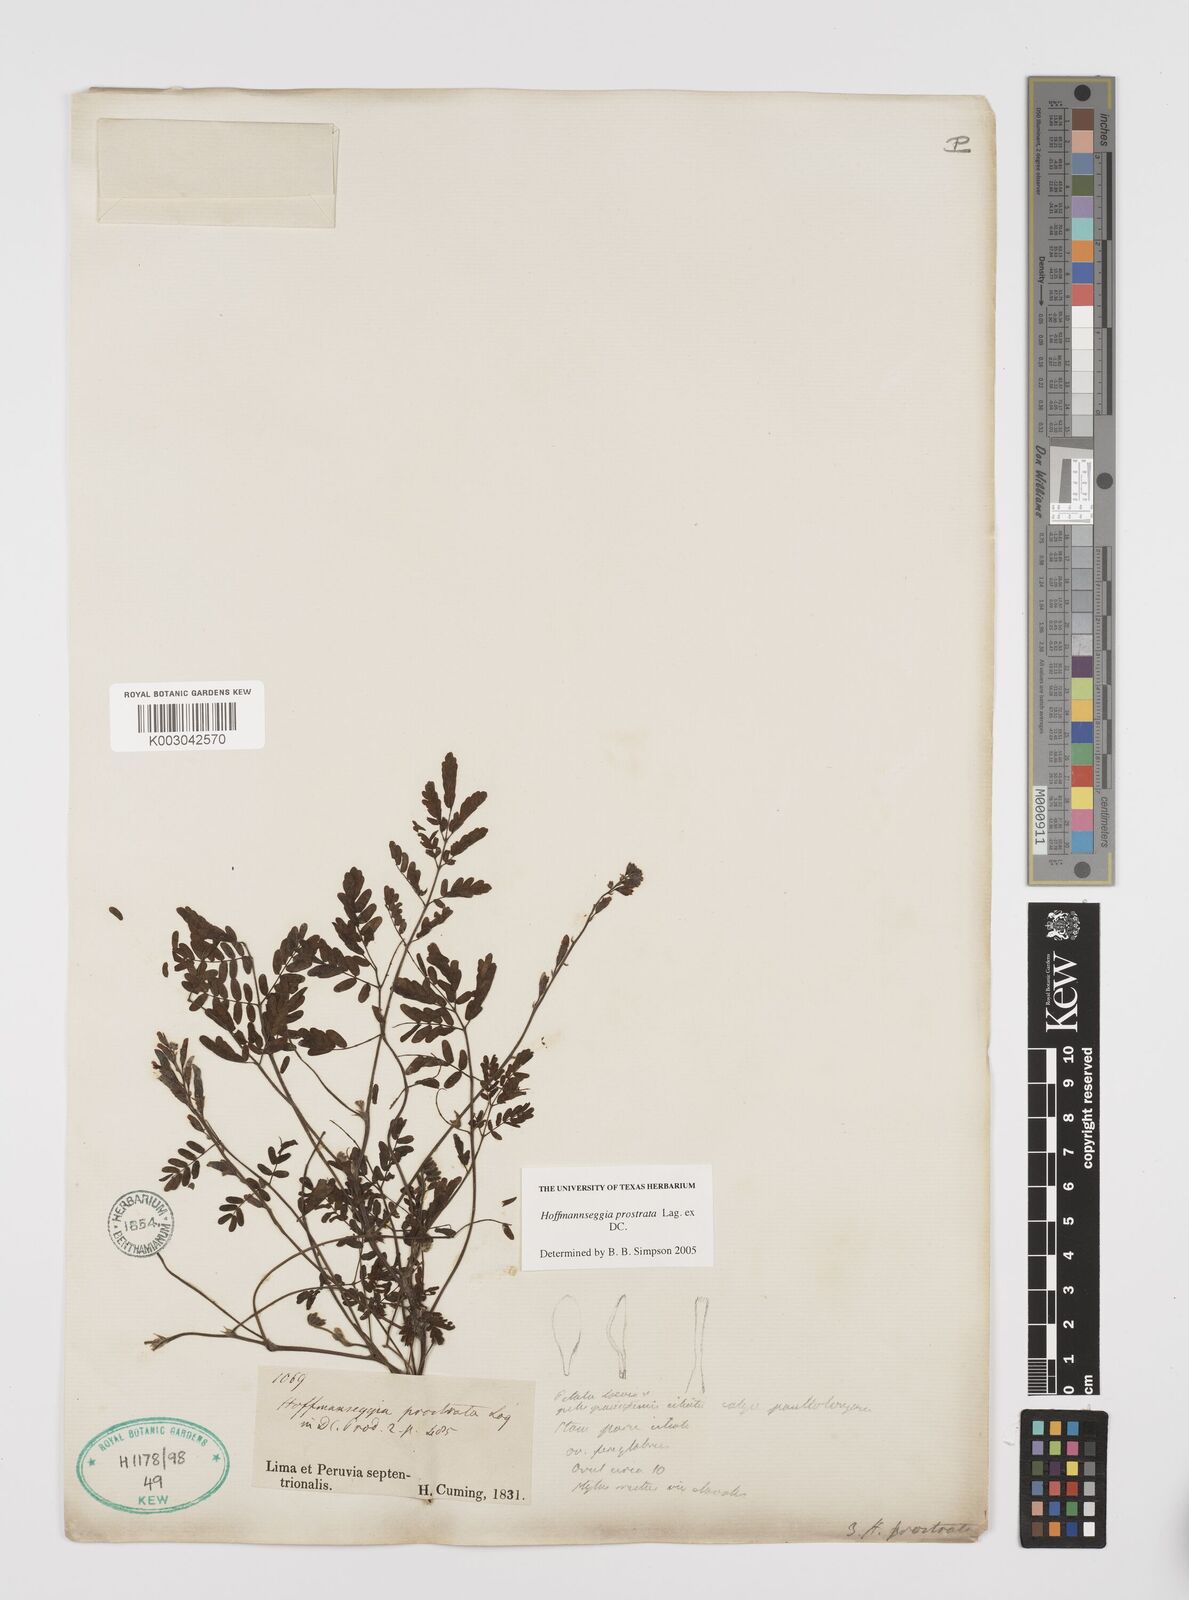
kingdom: Plantae
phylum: Tracheophyta
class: Magnoliopsida
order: Fabales
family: Fabaceae
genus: Hoffmannseggia
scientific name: Hoffmannseggia prostrata
